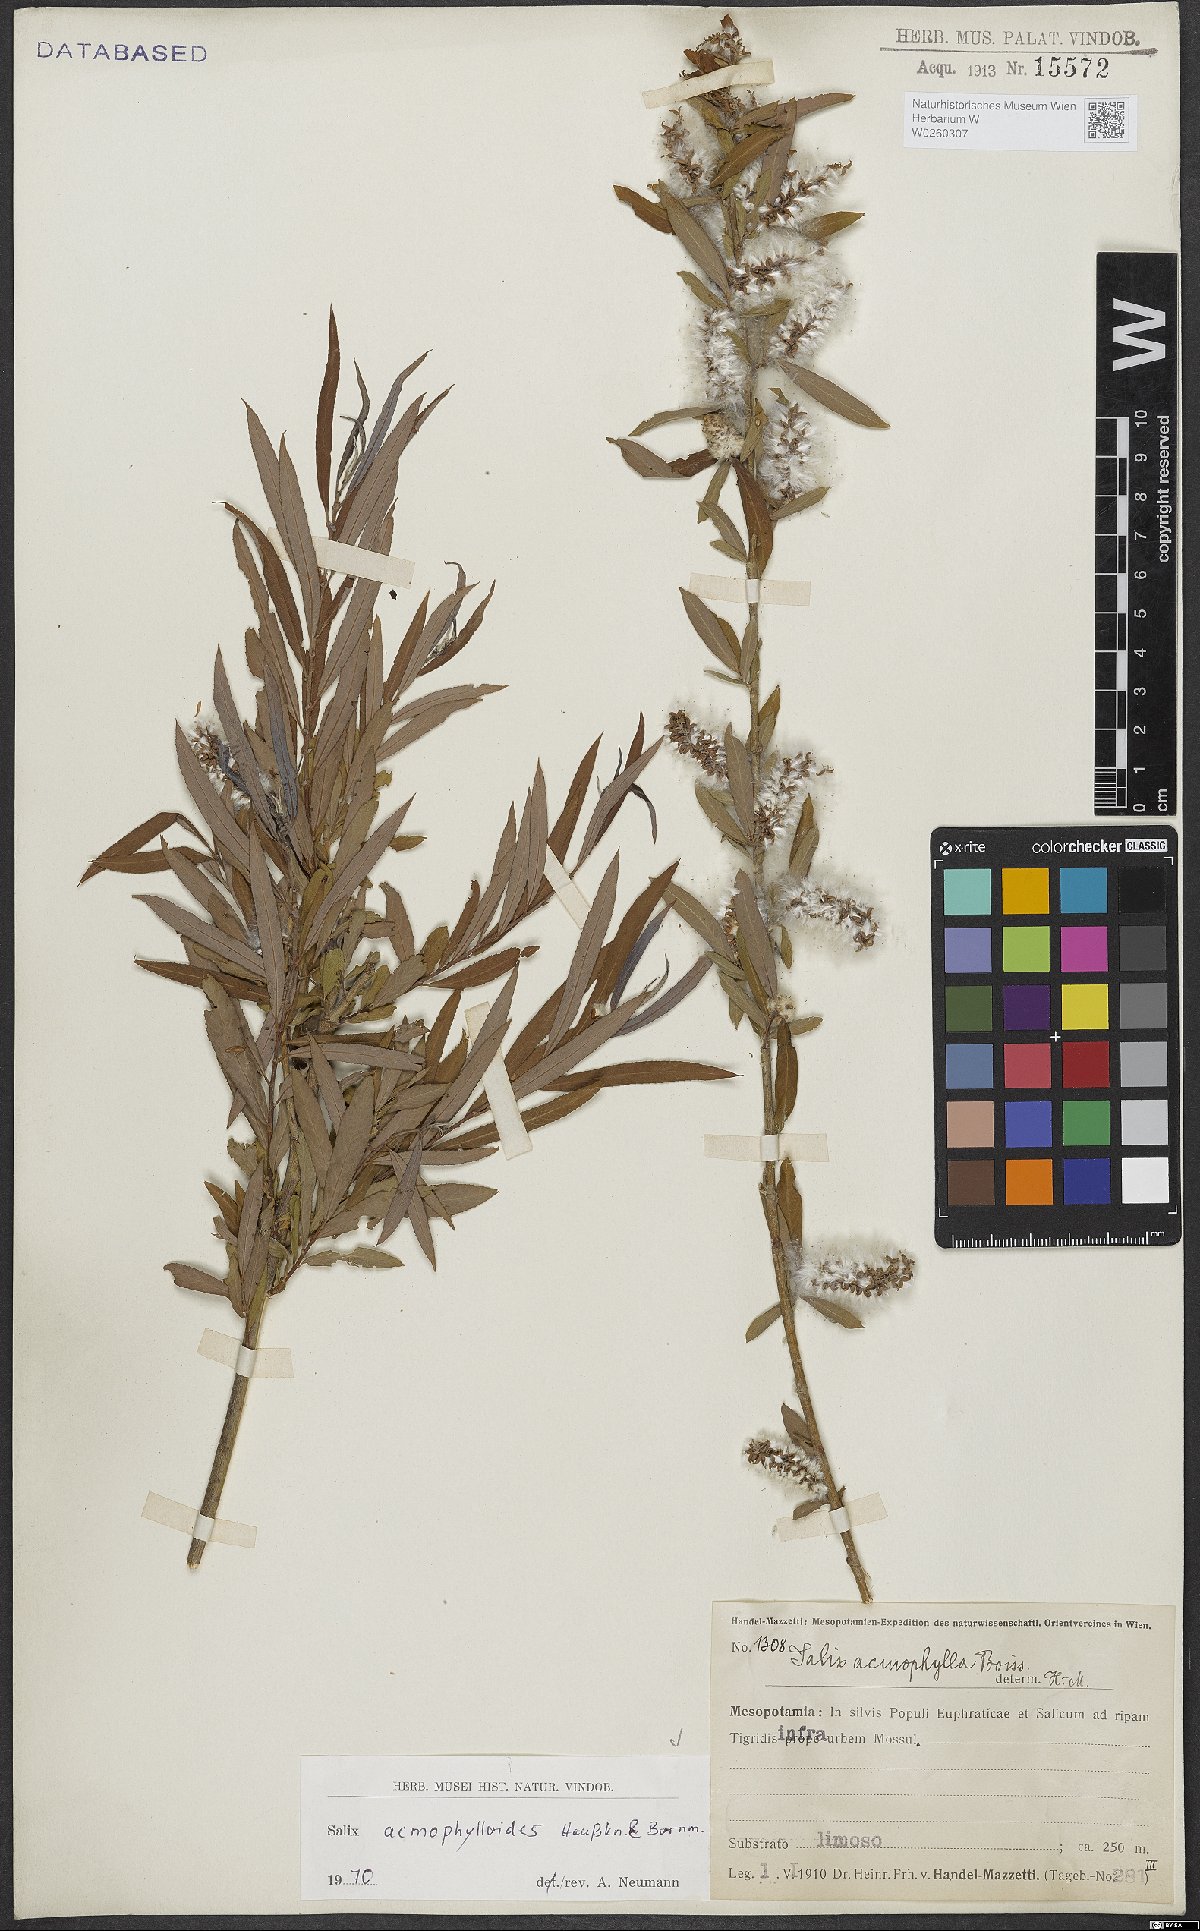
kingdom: Plantae
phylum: Tracheophyta
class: Magnoliopsida
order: Malpighiales
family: Salicaceae
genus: Salix
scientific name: Salix
